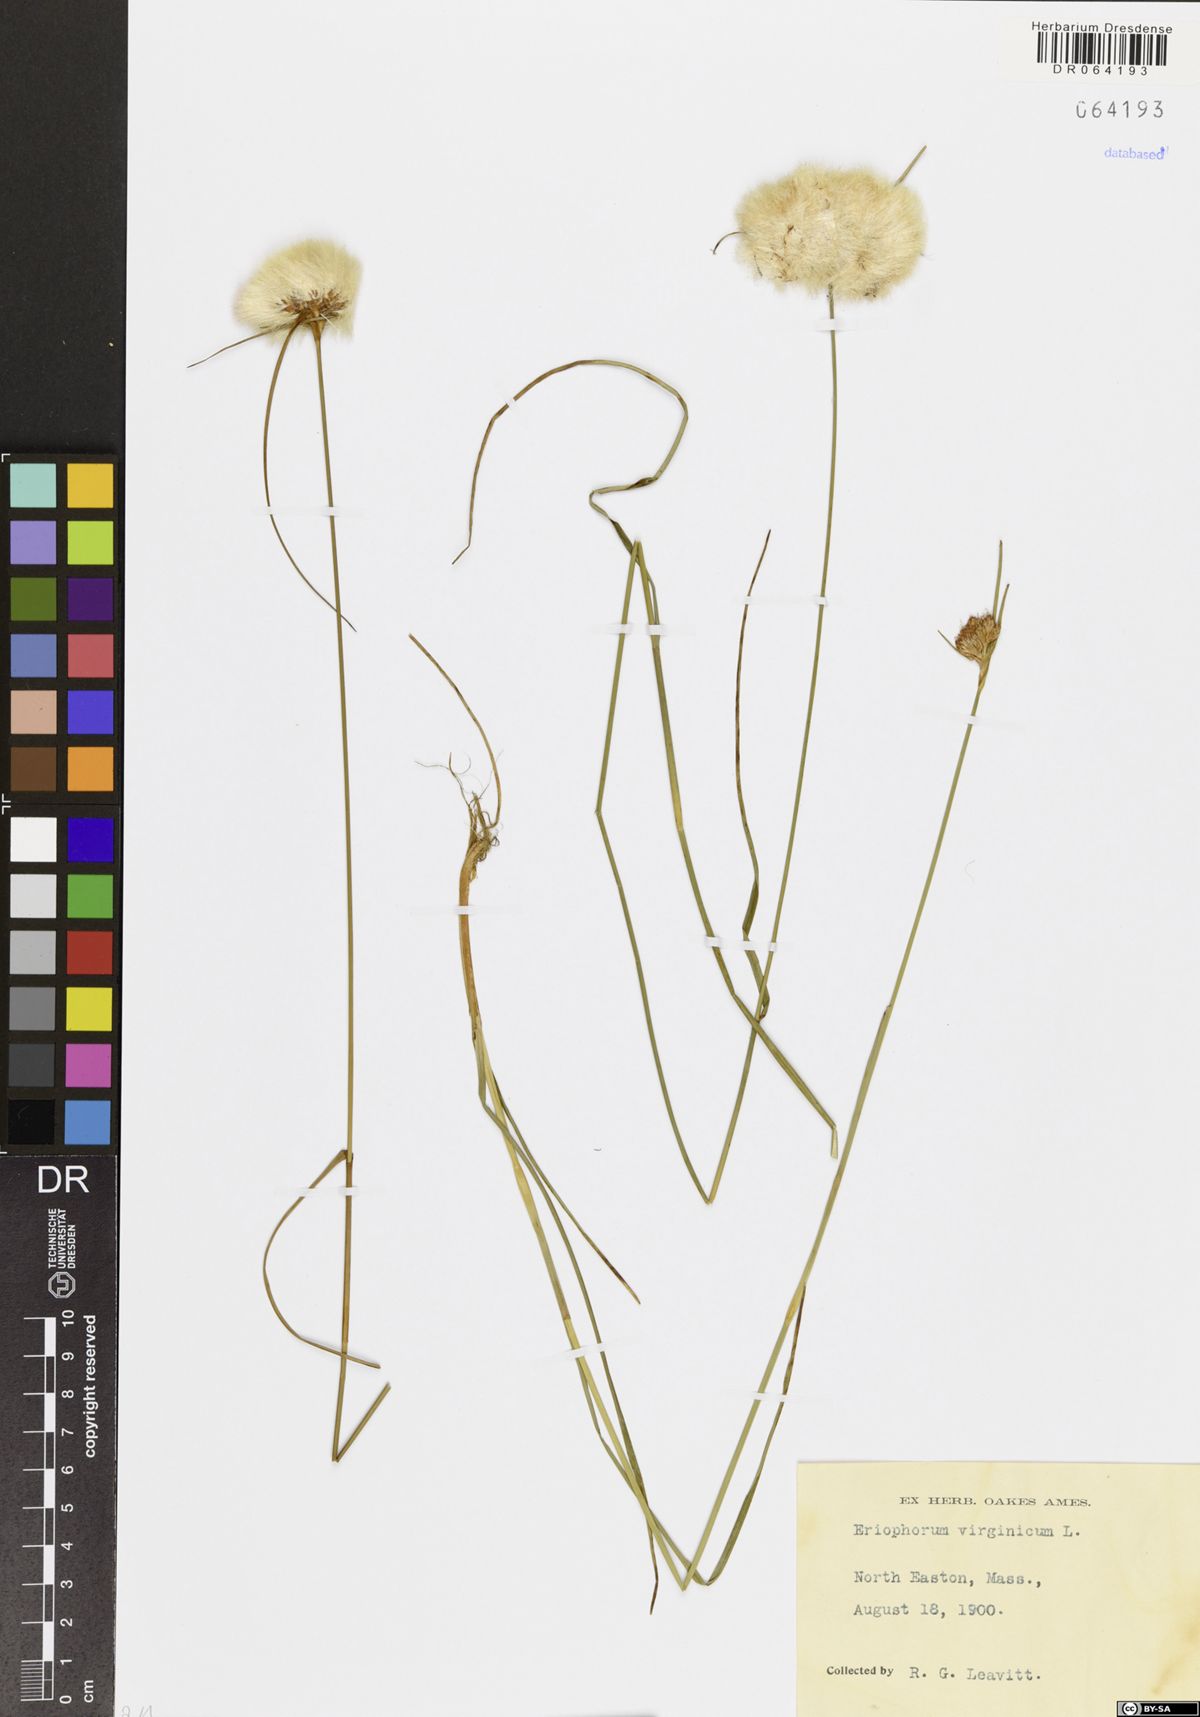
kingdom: Plantae
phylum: Tracheophyta
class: Liliopsida
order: Poales
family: Cyperaceae
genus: Eriophorum
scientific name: Eriophorum virginicum
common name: Tawny cottongrass
